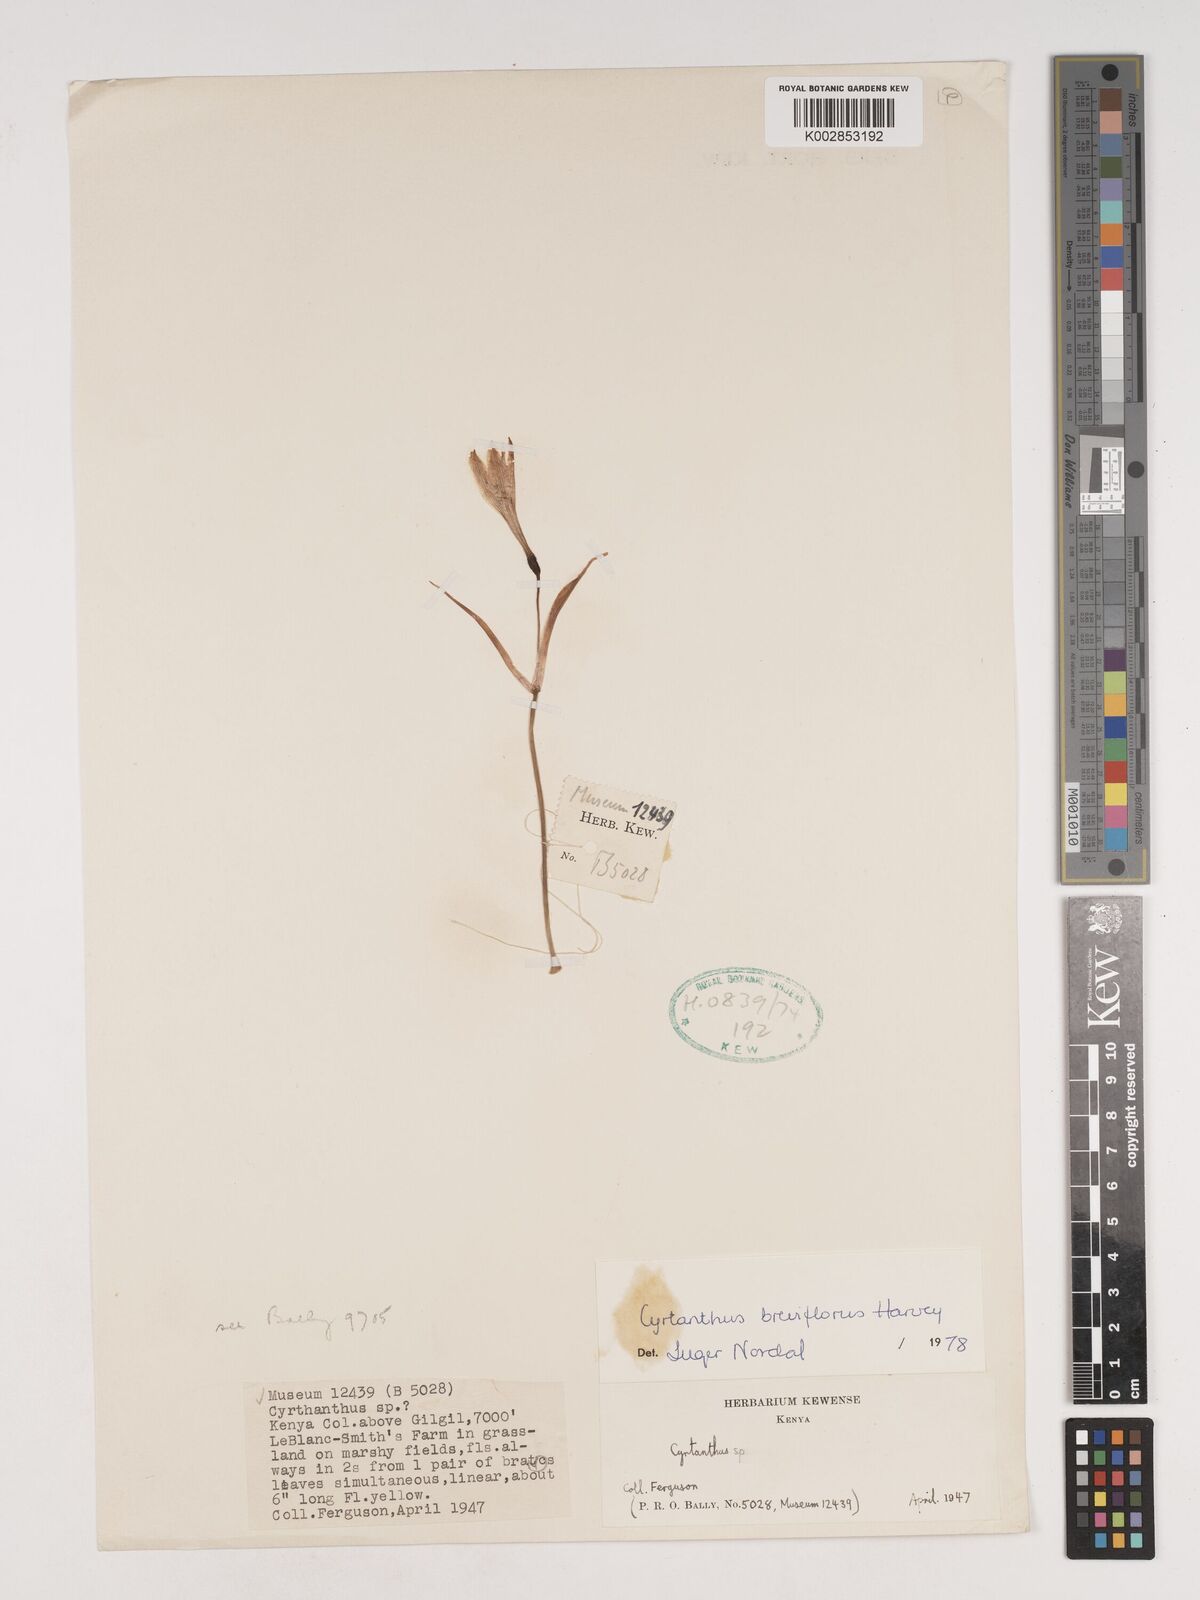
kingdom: Plantae
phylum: Tracheophyta
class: Liliopsida
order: Asparagales
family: Amaryllidaceae
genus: Cyrtanthus
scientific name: Cyrtanthus breviflorus
